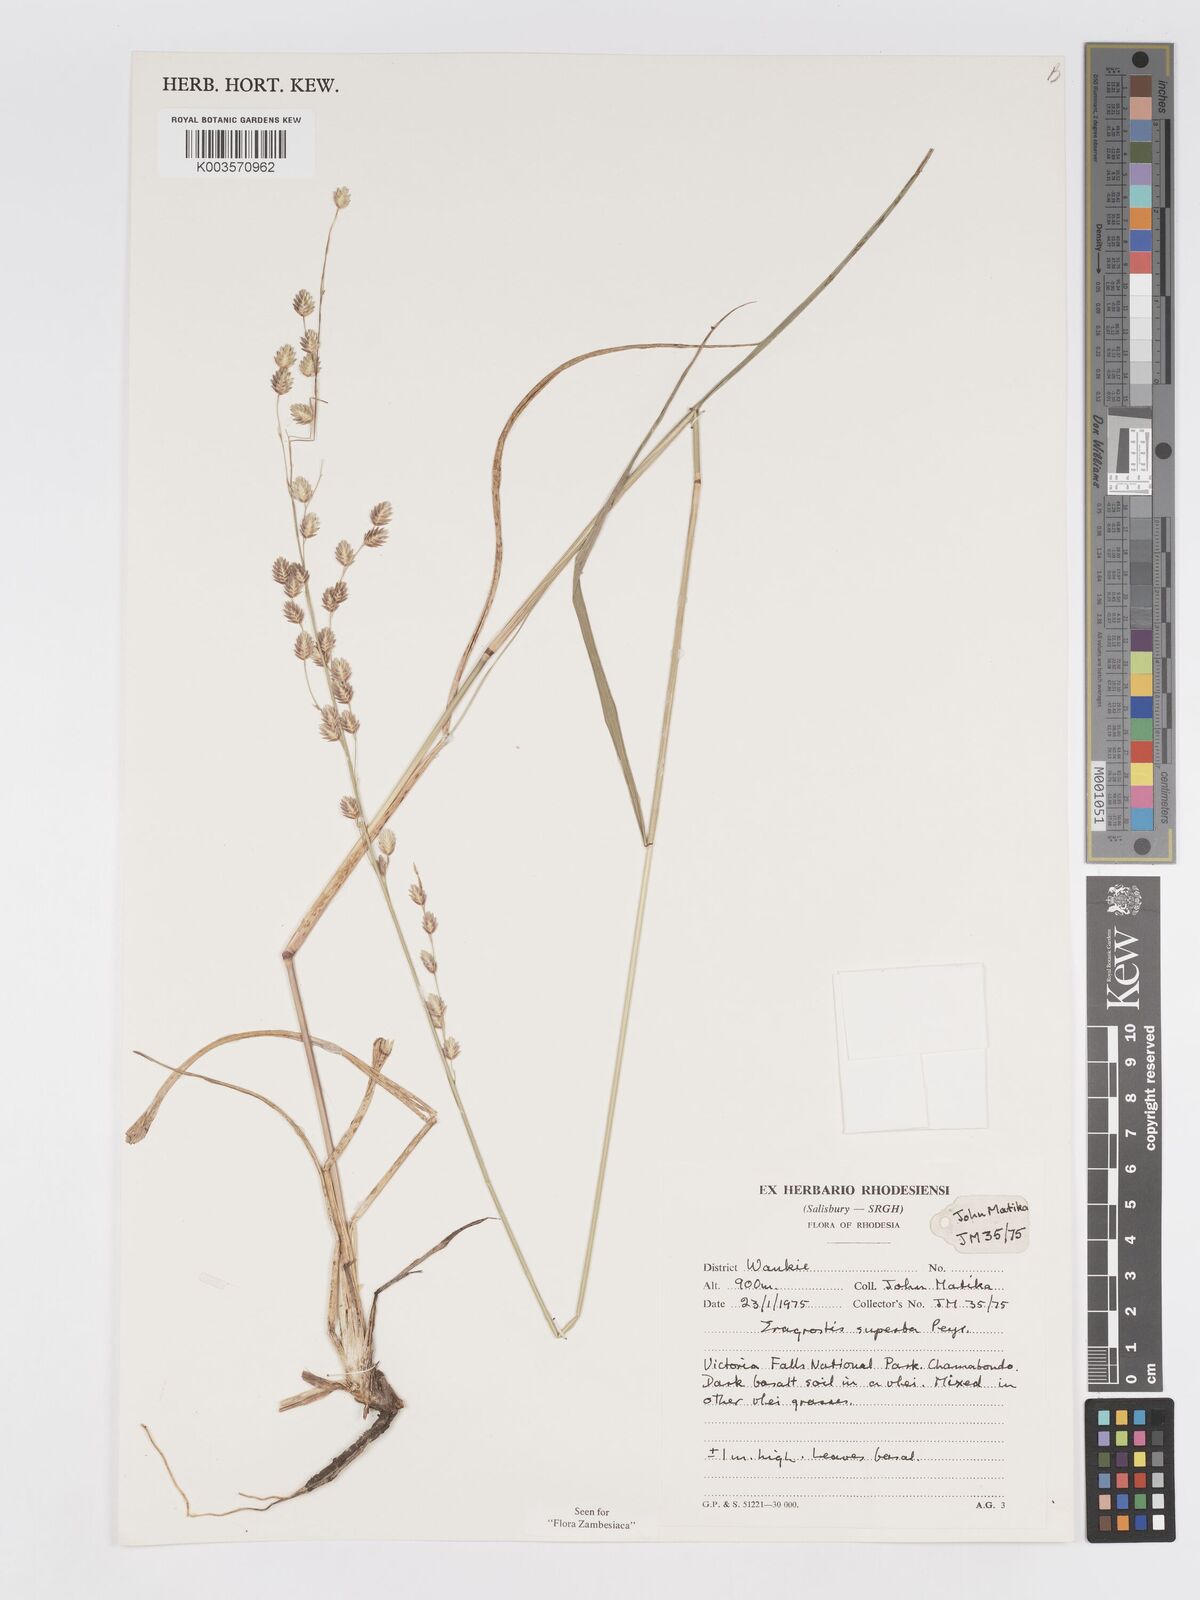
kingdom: Plantae
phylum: Tracheophyta
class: Liliopsida
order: Poales
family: Poaceae
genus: Eragrostis
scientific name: Eragrostis superba
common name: Wilman lovegrass
